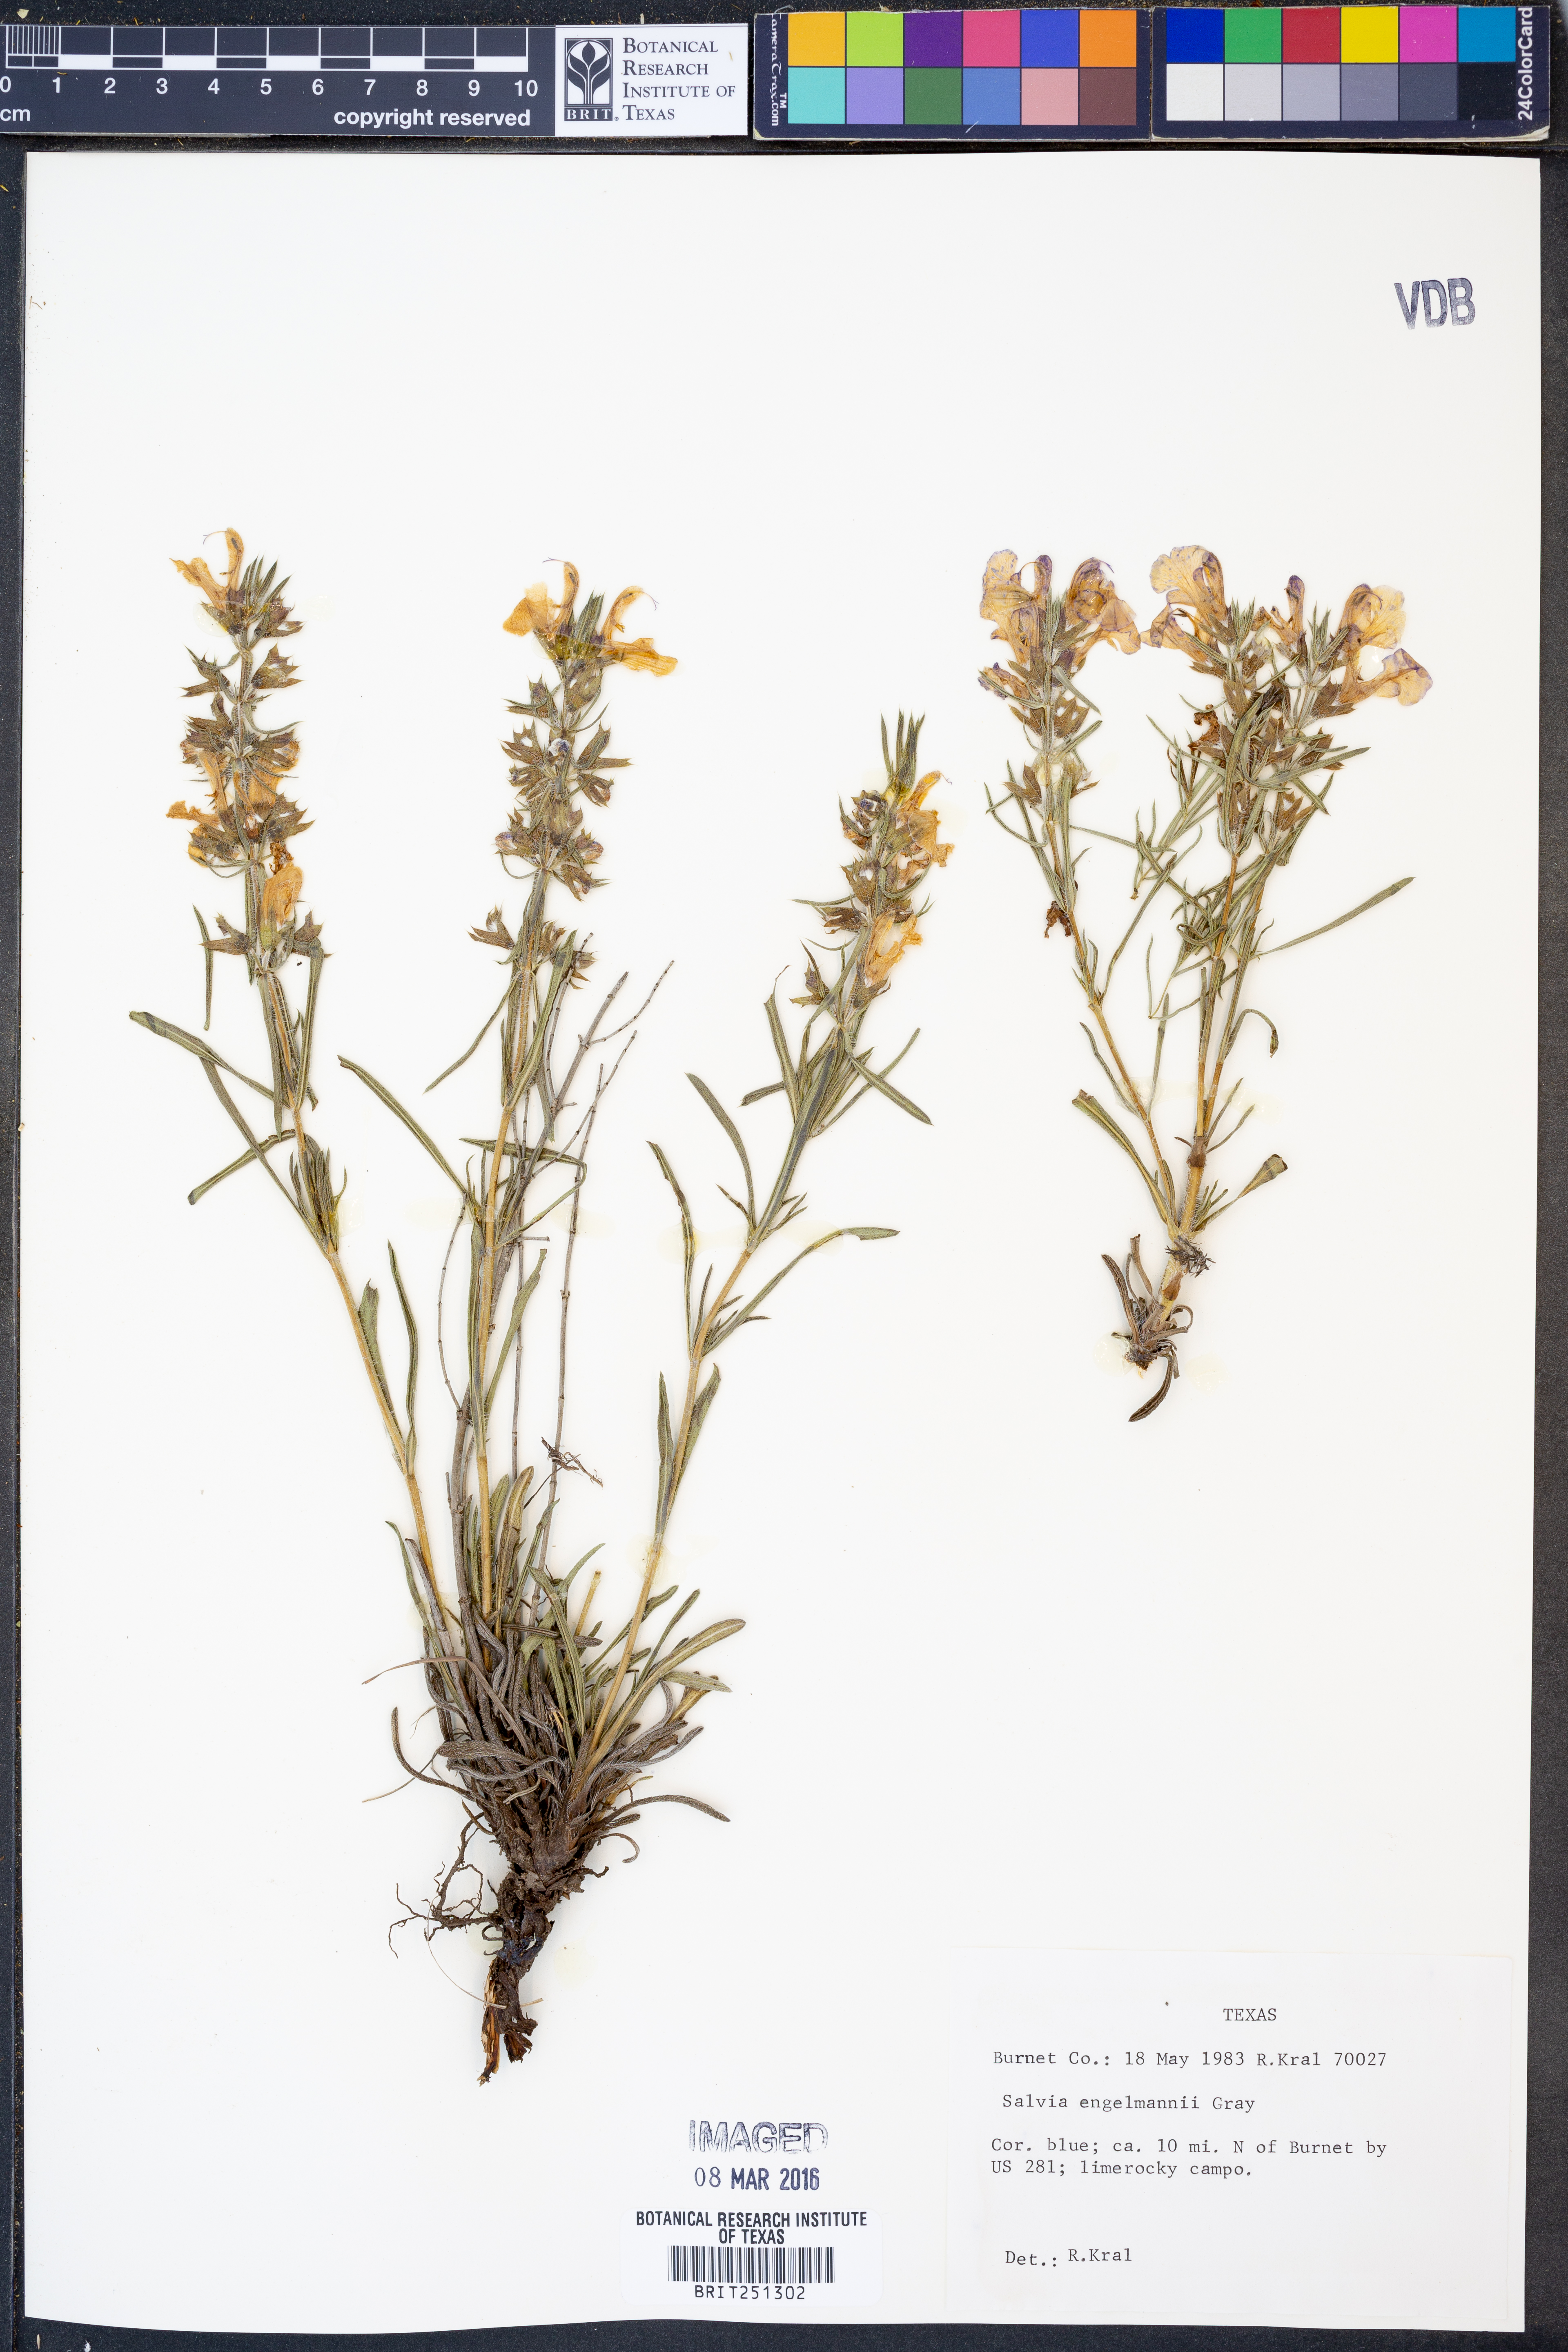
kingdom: Plantae
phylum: Tracheophyta
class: Magnoliopsida
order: Lamiales
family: Lamiaceae
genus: Salvia
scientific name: Salvia engelmannii
